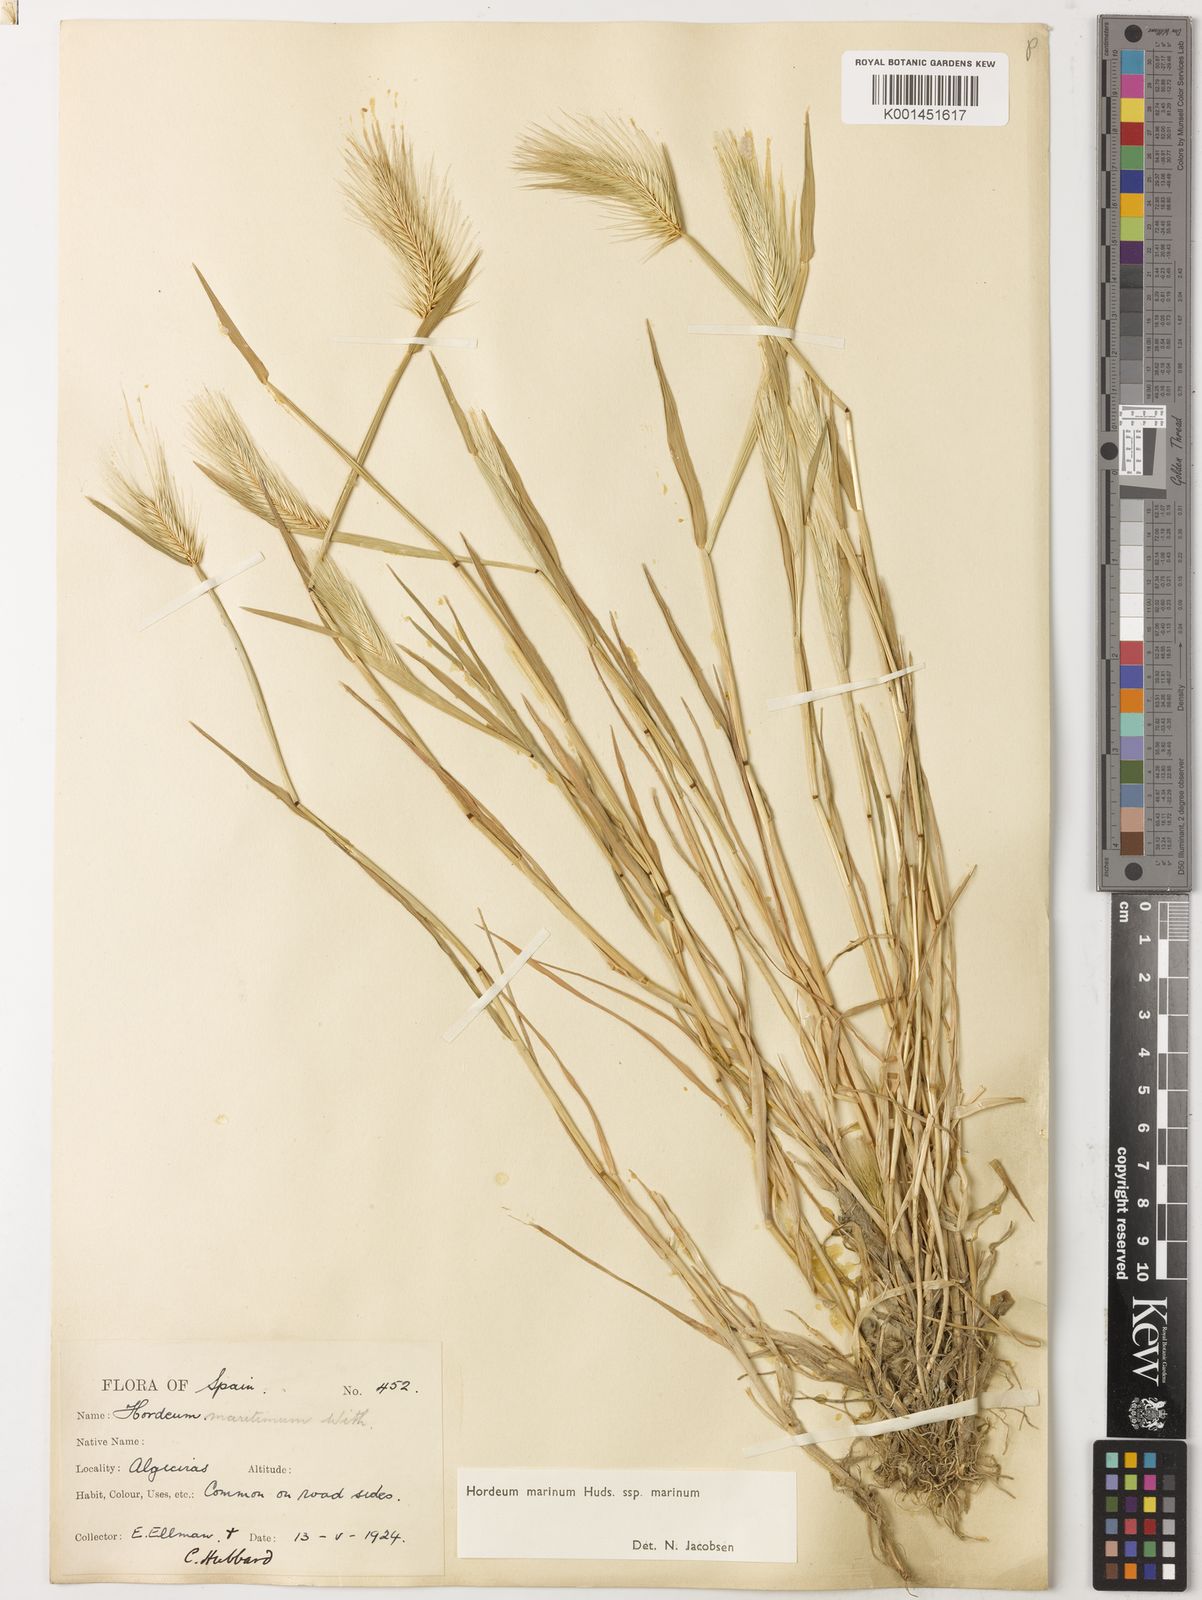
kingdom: Plantae
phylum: Tracheophyta
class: Liliopsida
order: Poales
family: Poaceae
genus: Hordeum
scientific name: Hordeum marinum
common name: Sea barley
